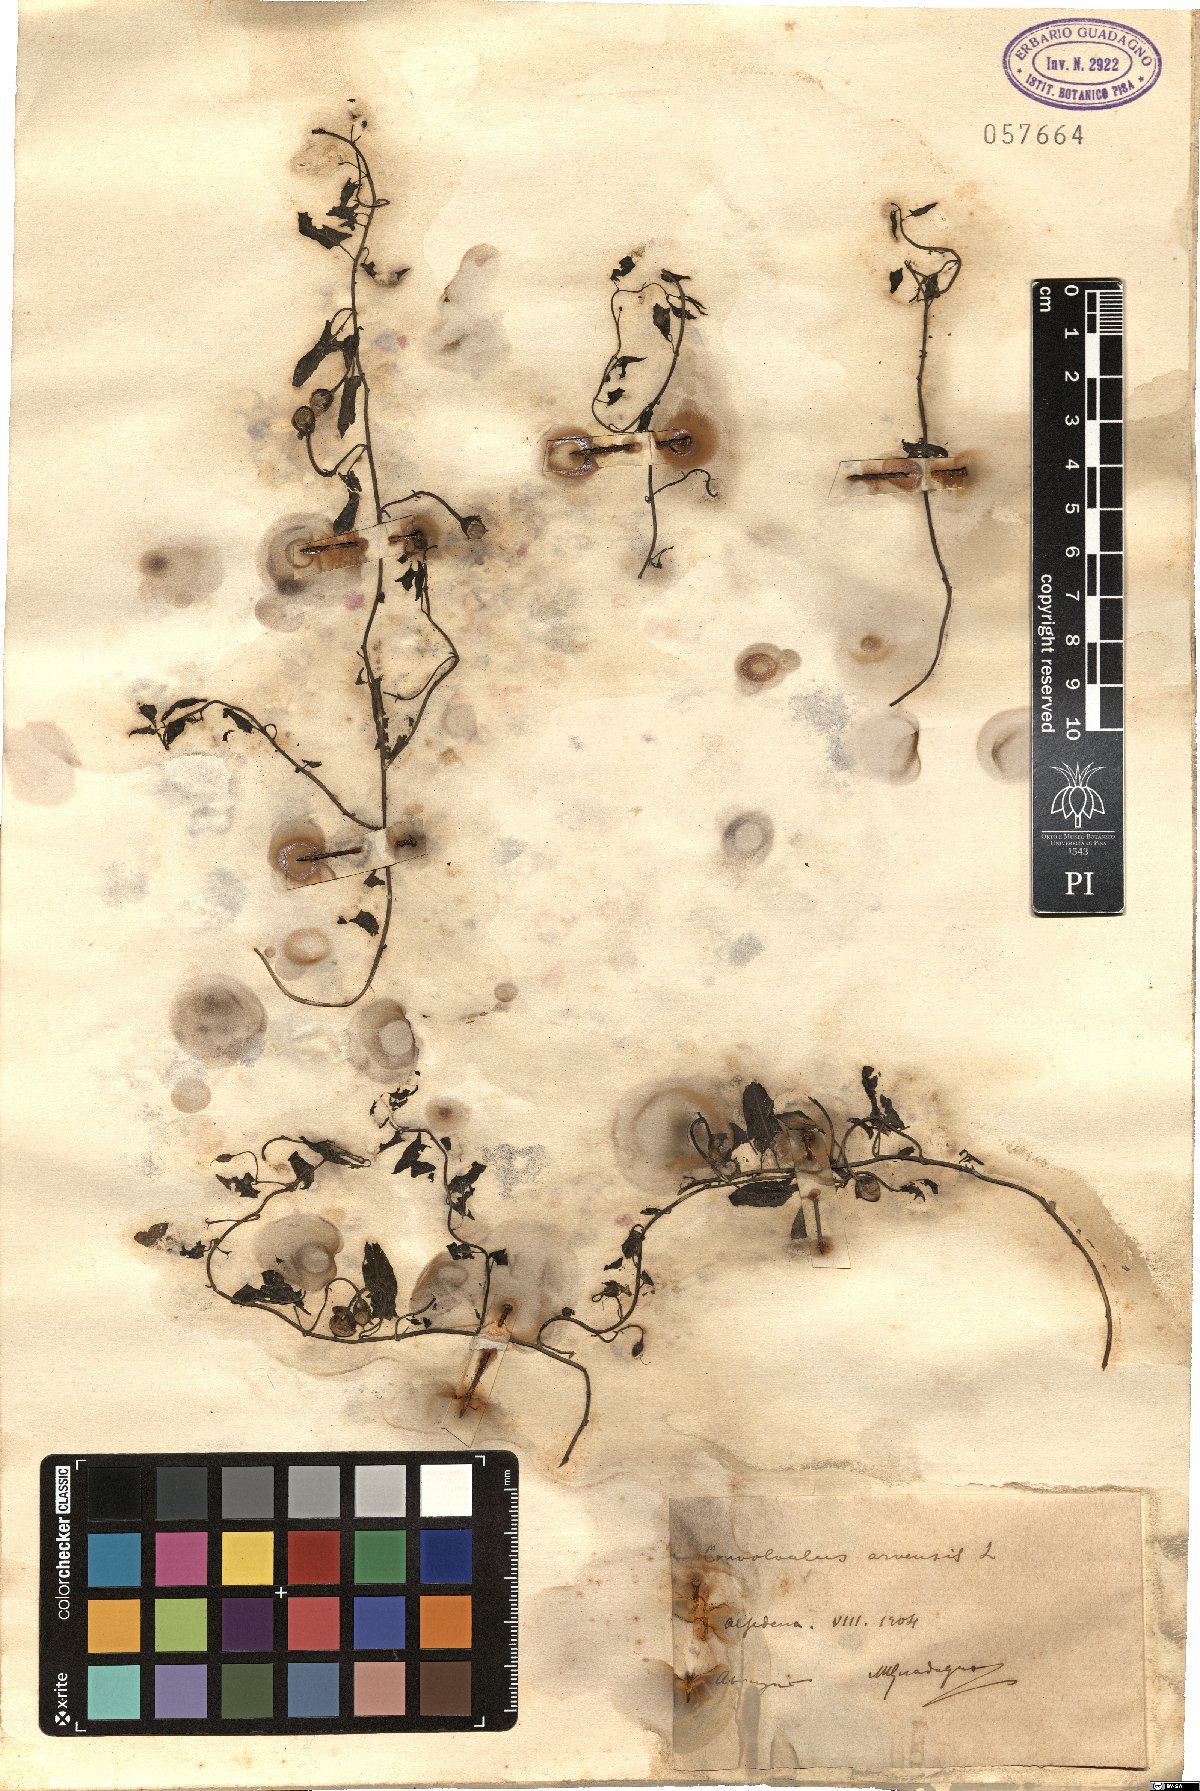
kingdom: Plantae
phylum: Tracheophyta
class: Magnoliopsida
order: Solanales
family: Convolvulaceae
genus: Convolvulus
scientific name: Convolvulus arvensis
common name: Field bindweed
